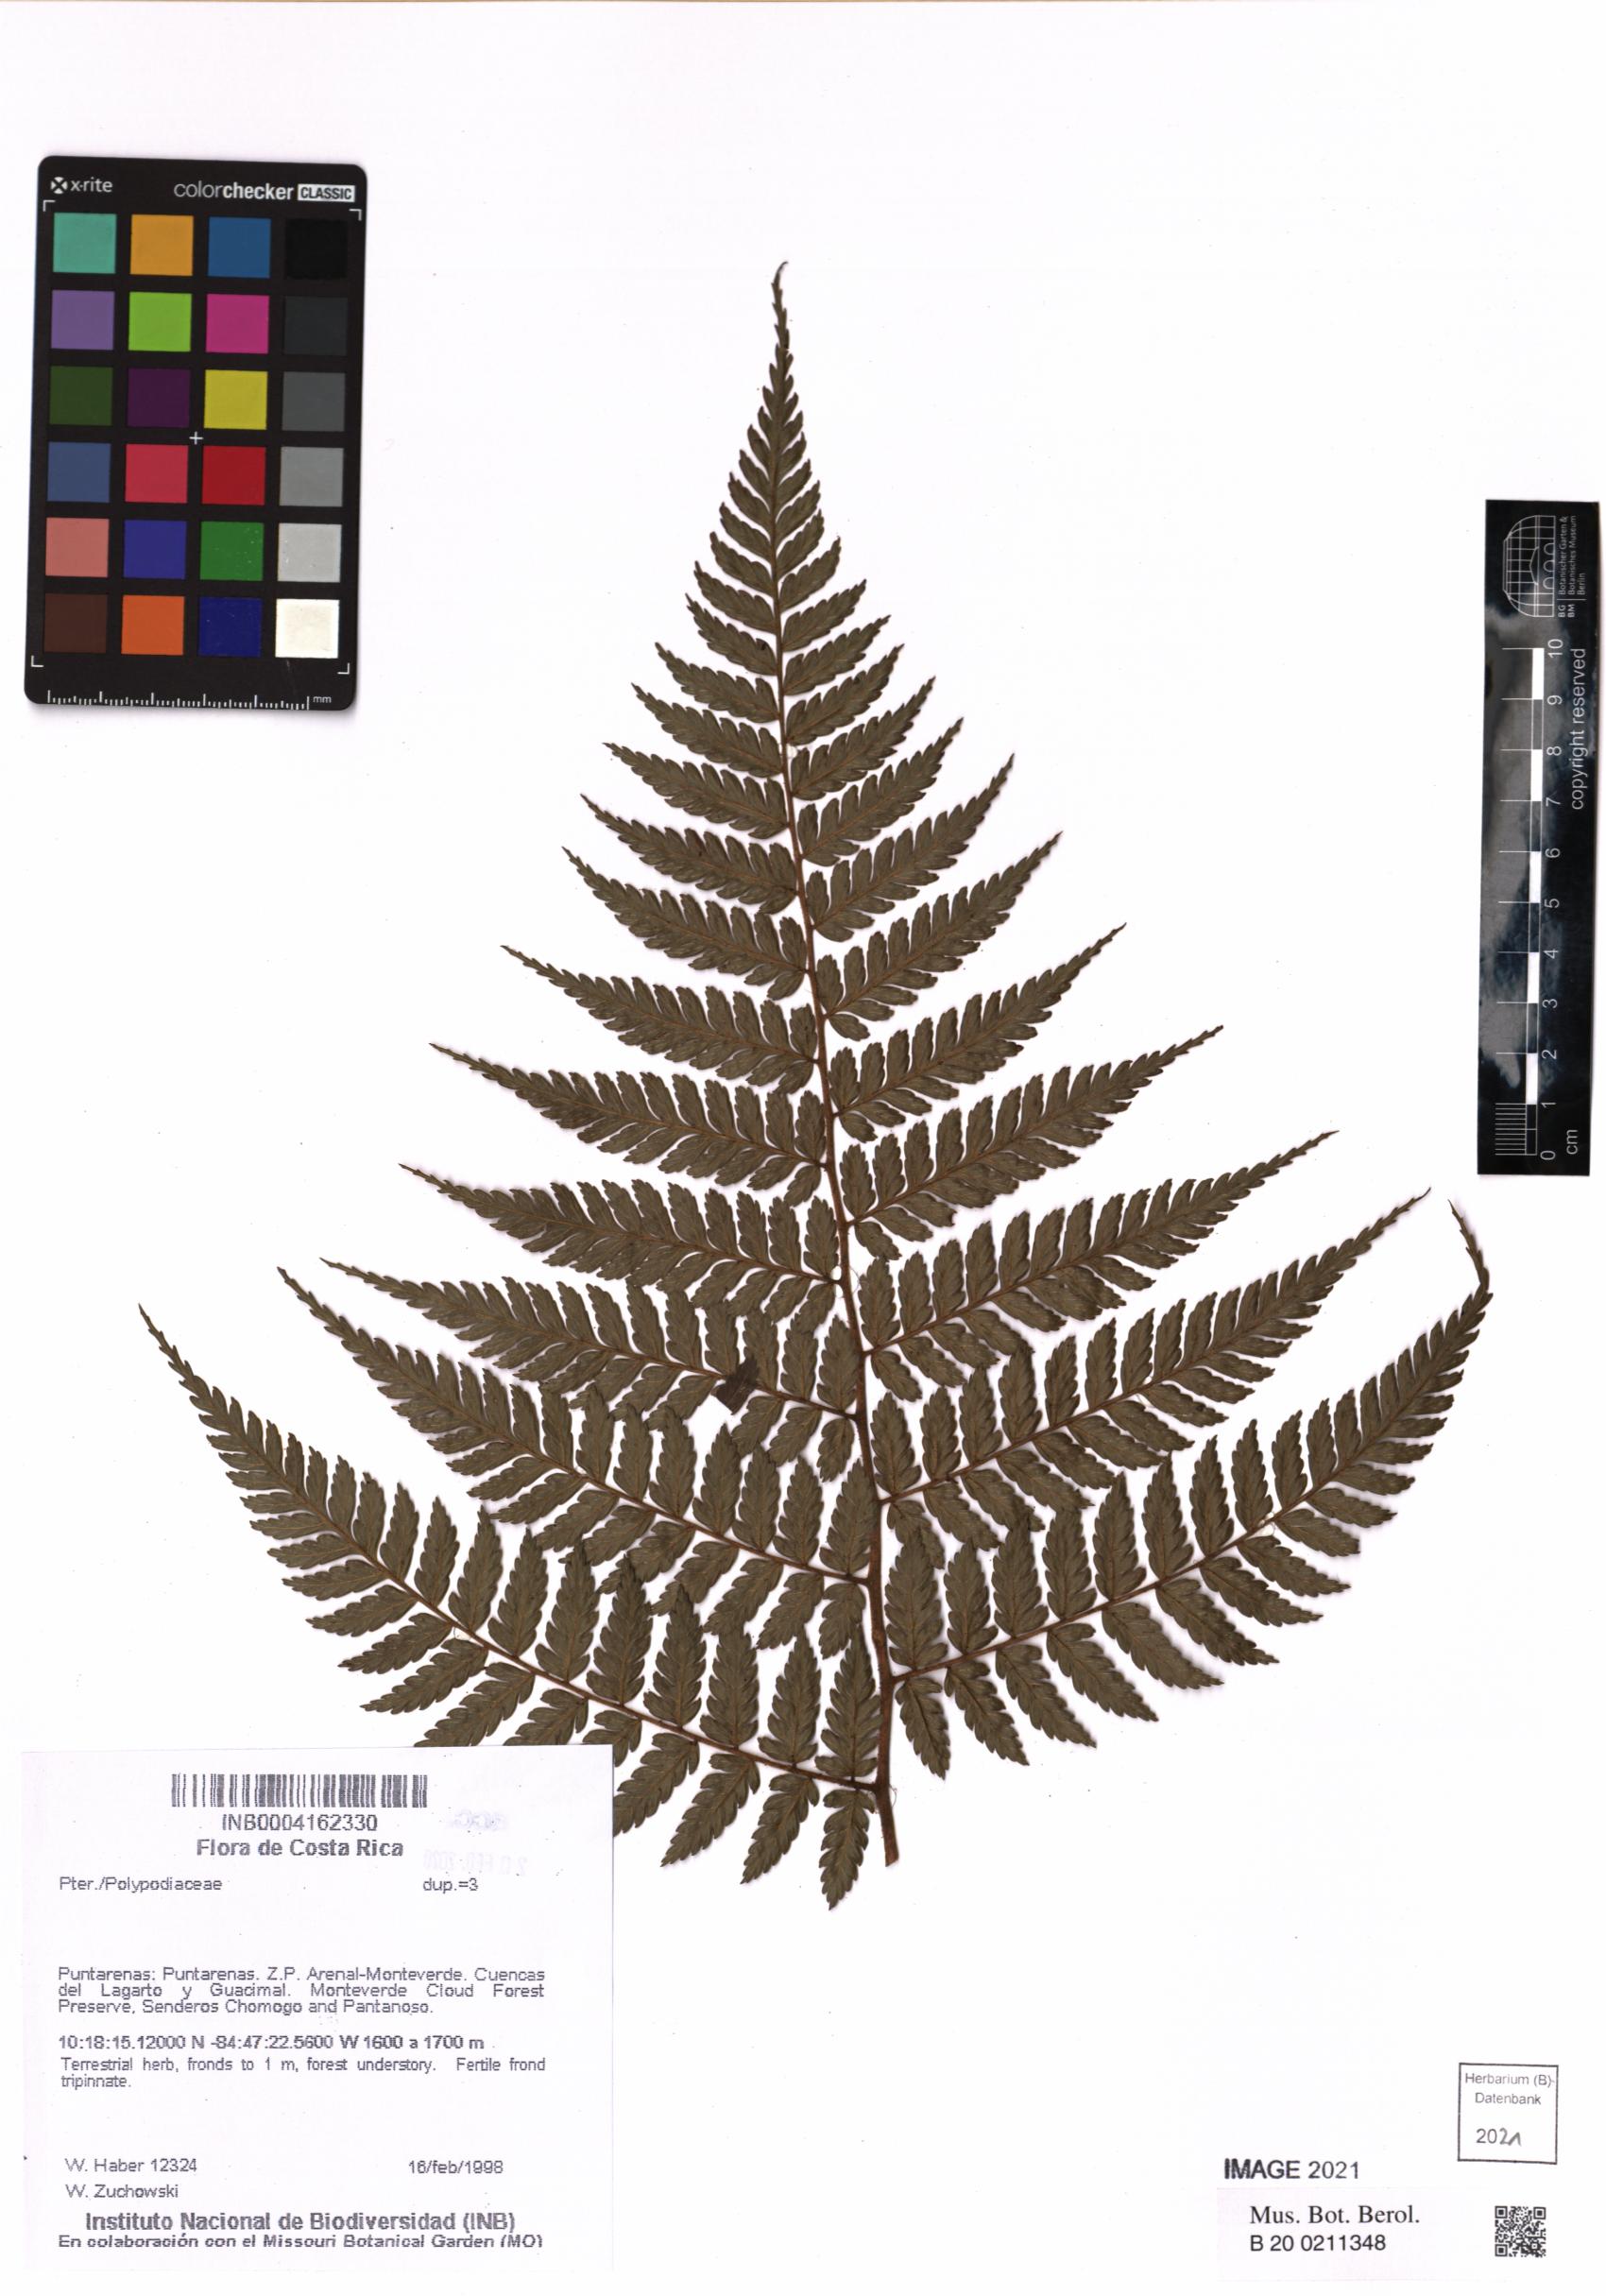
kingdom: Plantae
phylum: Tracheophyta
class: Polypodiopsida
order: Polypodiales
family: Polypodiaceae
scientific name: Polypodiaceae
